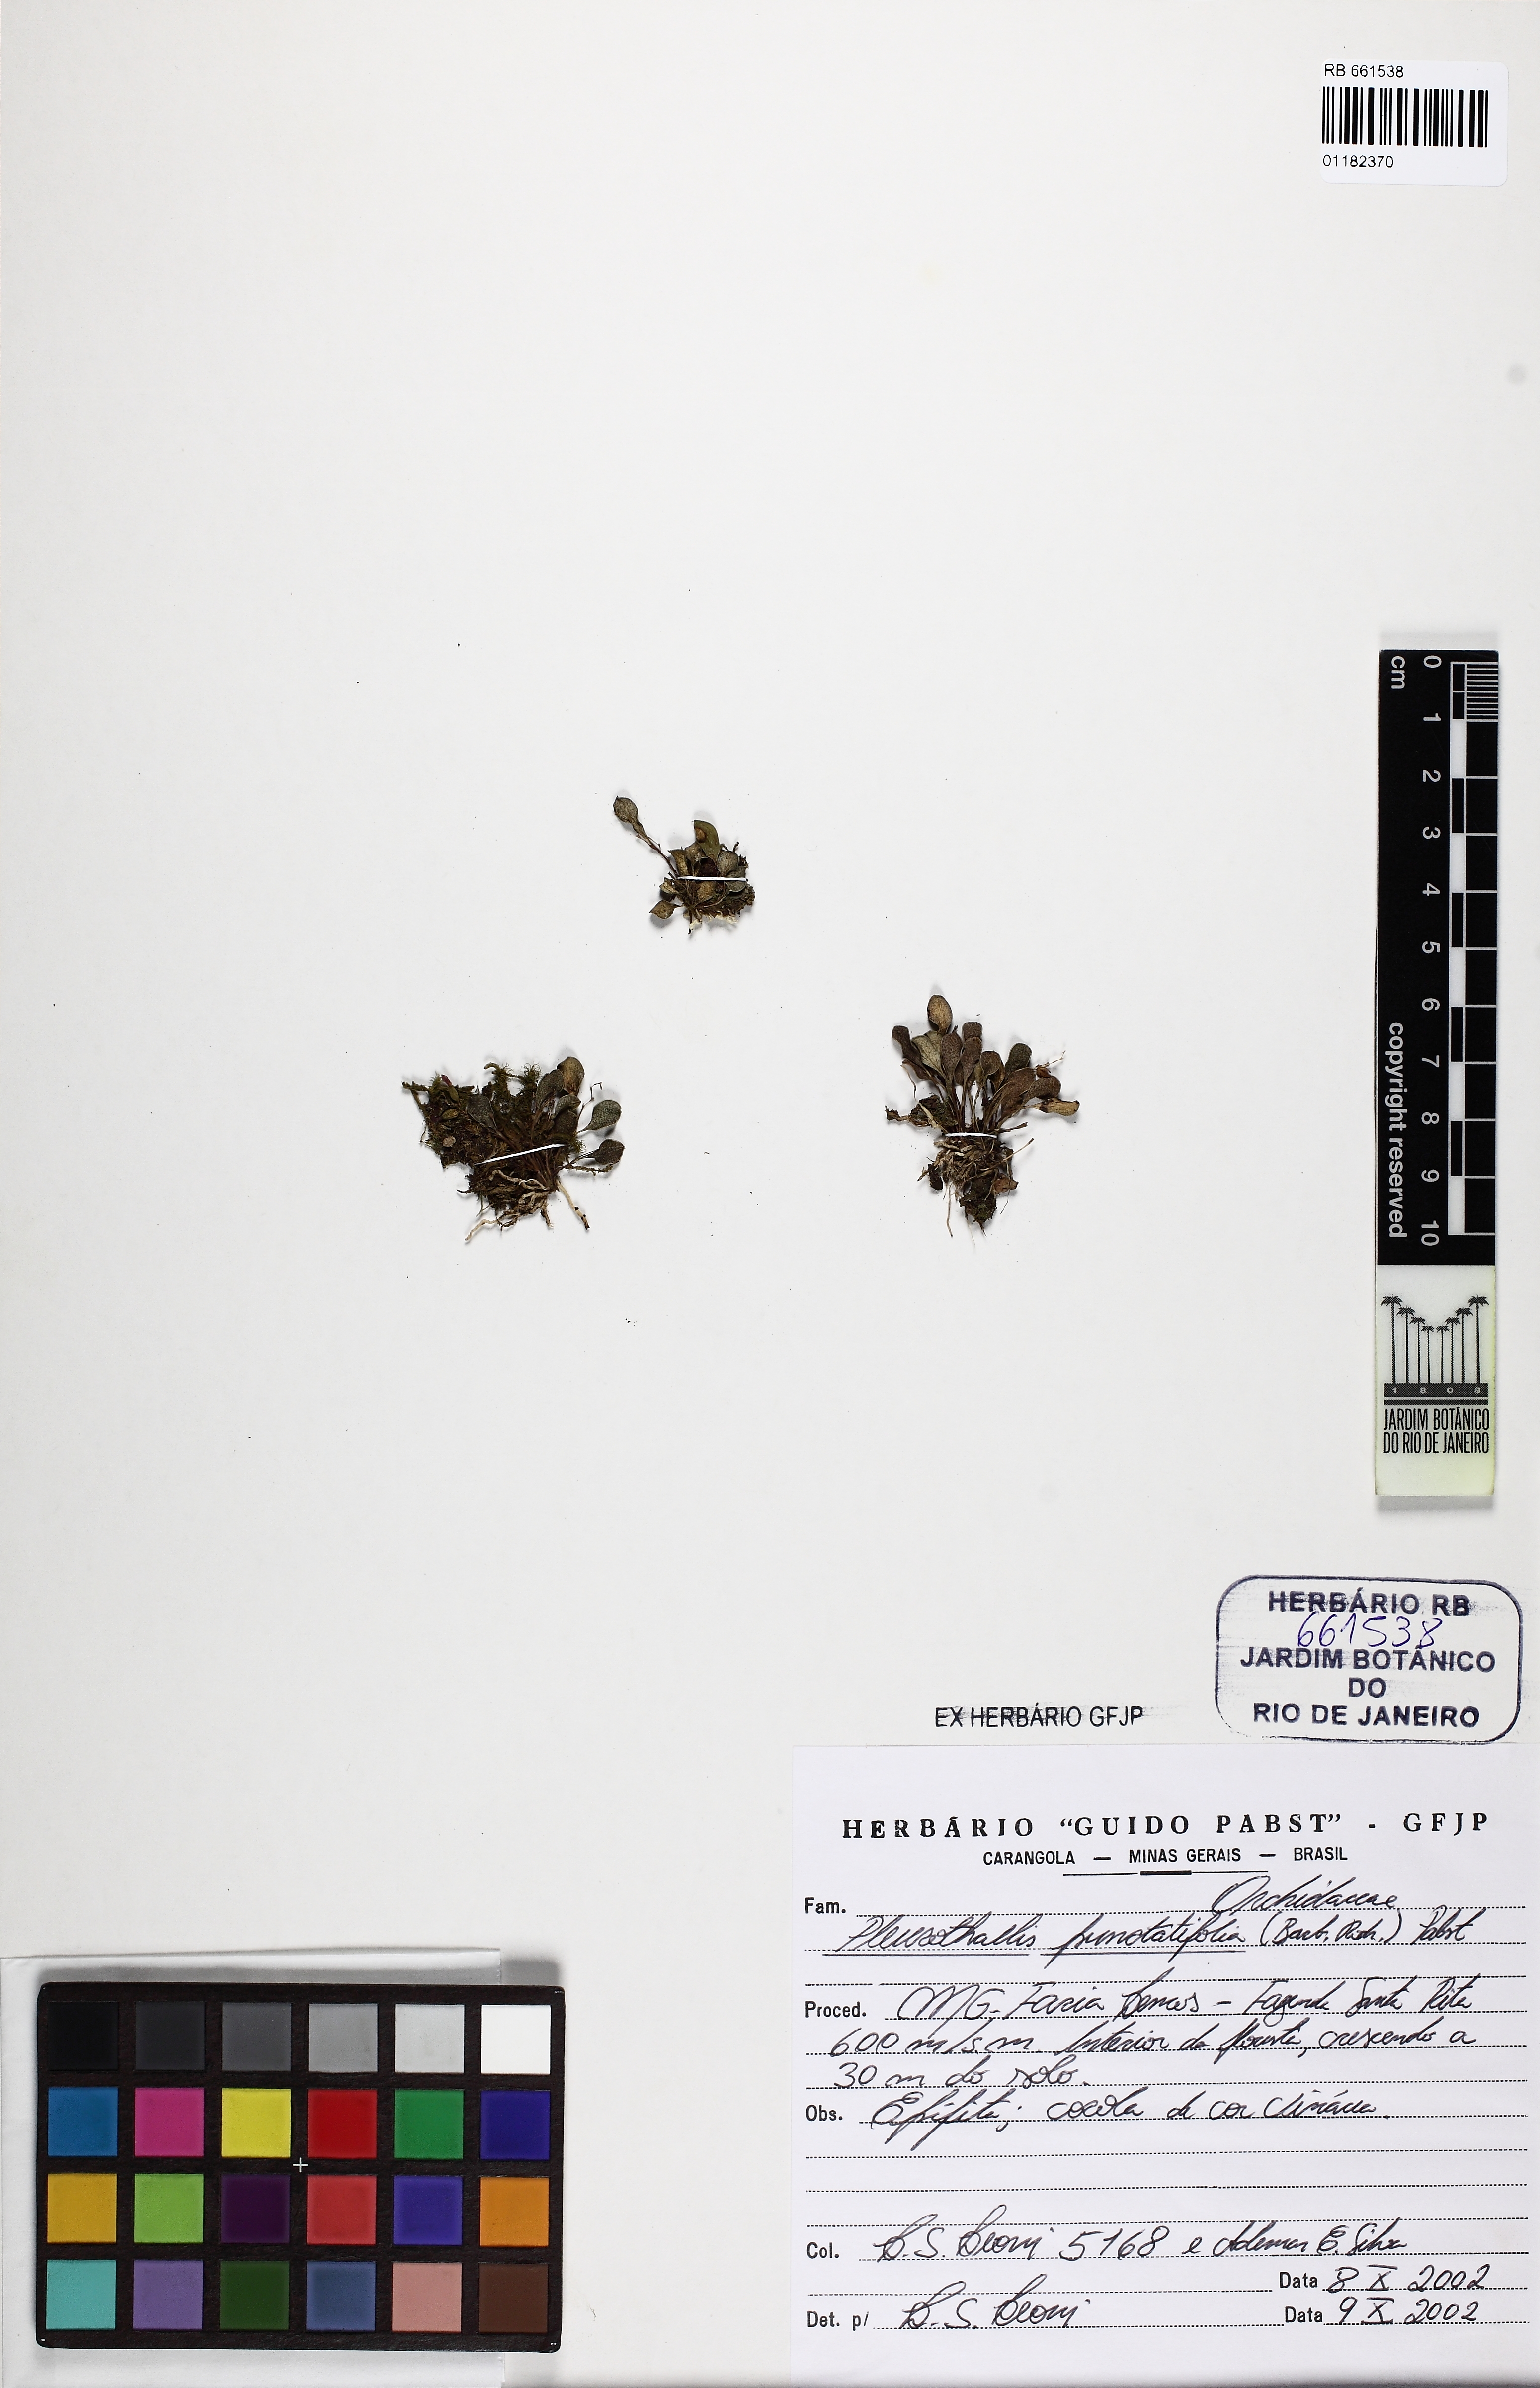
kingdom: Plantae
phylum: Tracheophyta
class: Liliopsida
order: Asparagales
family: Orchidaceae
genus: Pabstiella
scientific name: Pabstiella uniflora
